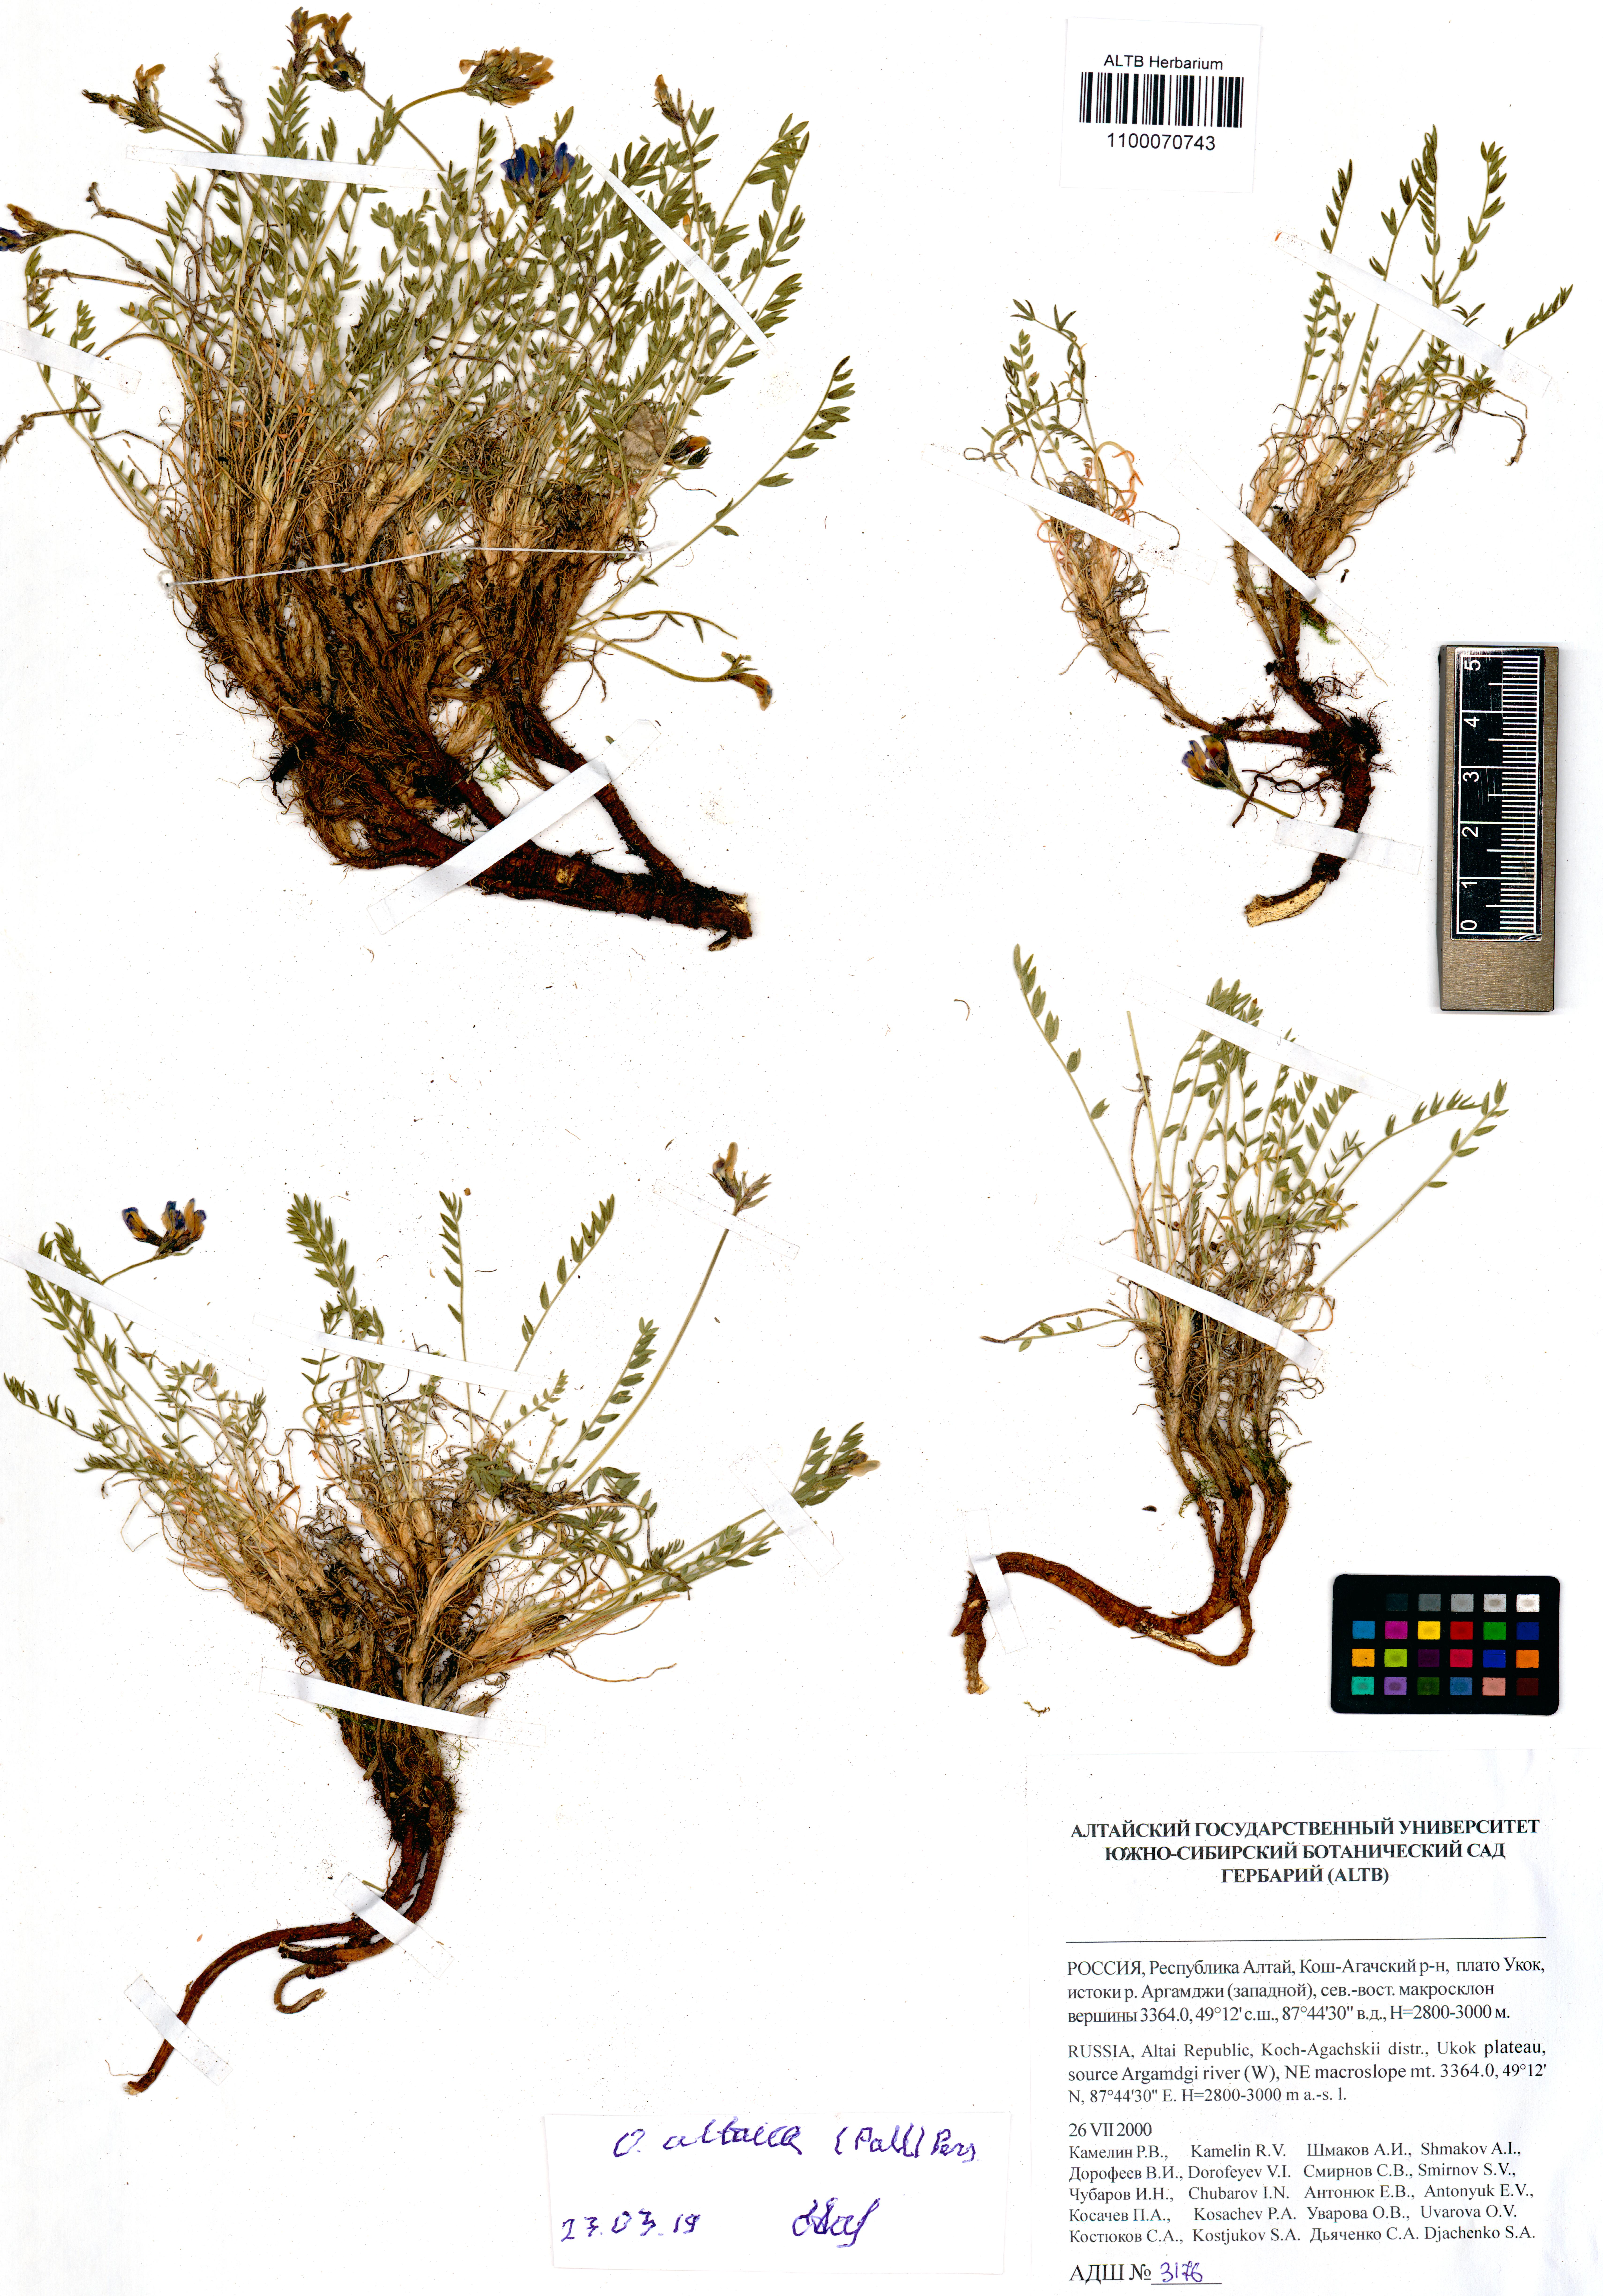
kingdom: Plantae
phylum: Tracheophyta
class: Magnoliopsida
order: Fabales
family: Fabaceae
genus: Oxytropis
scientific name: Oxytropis altaica
